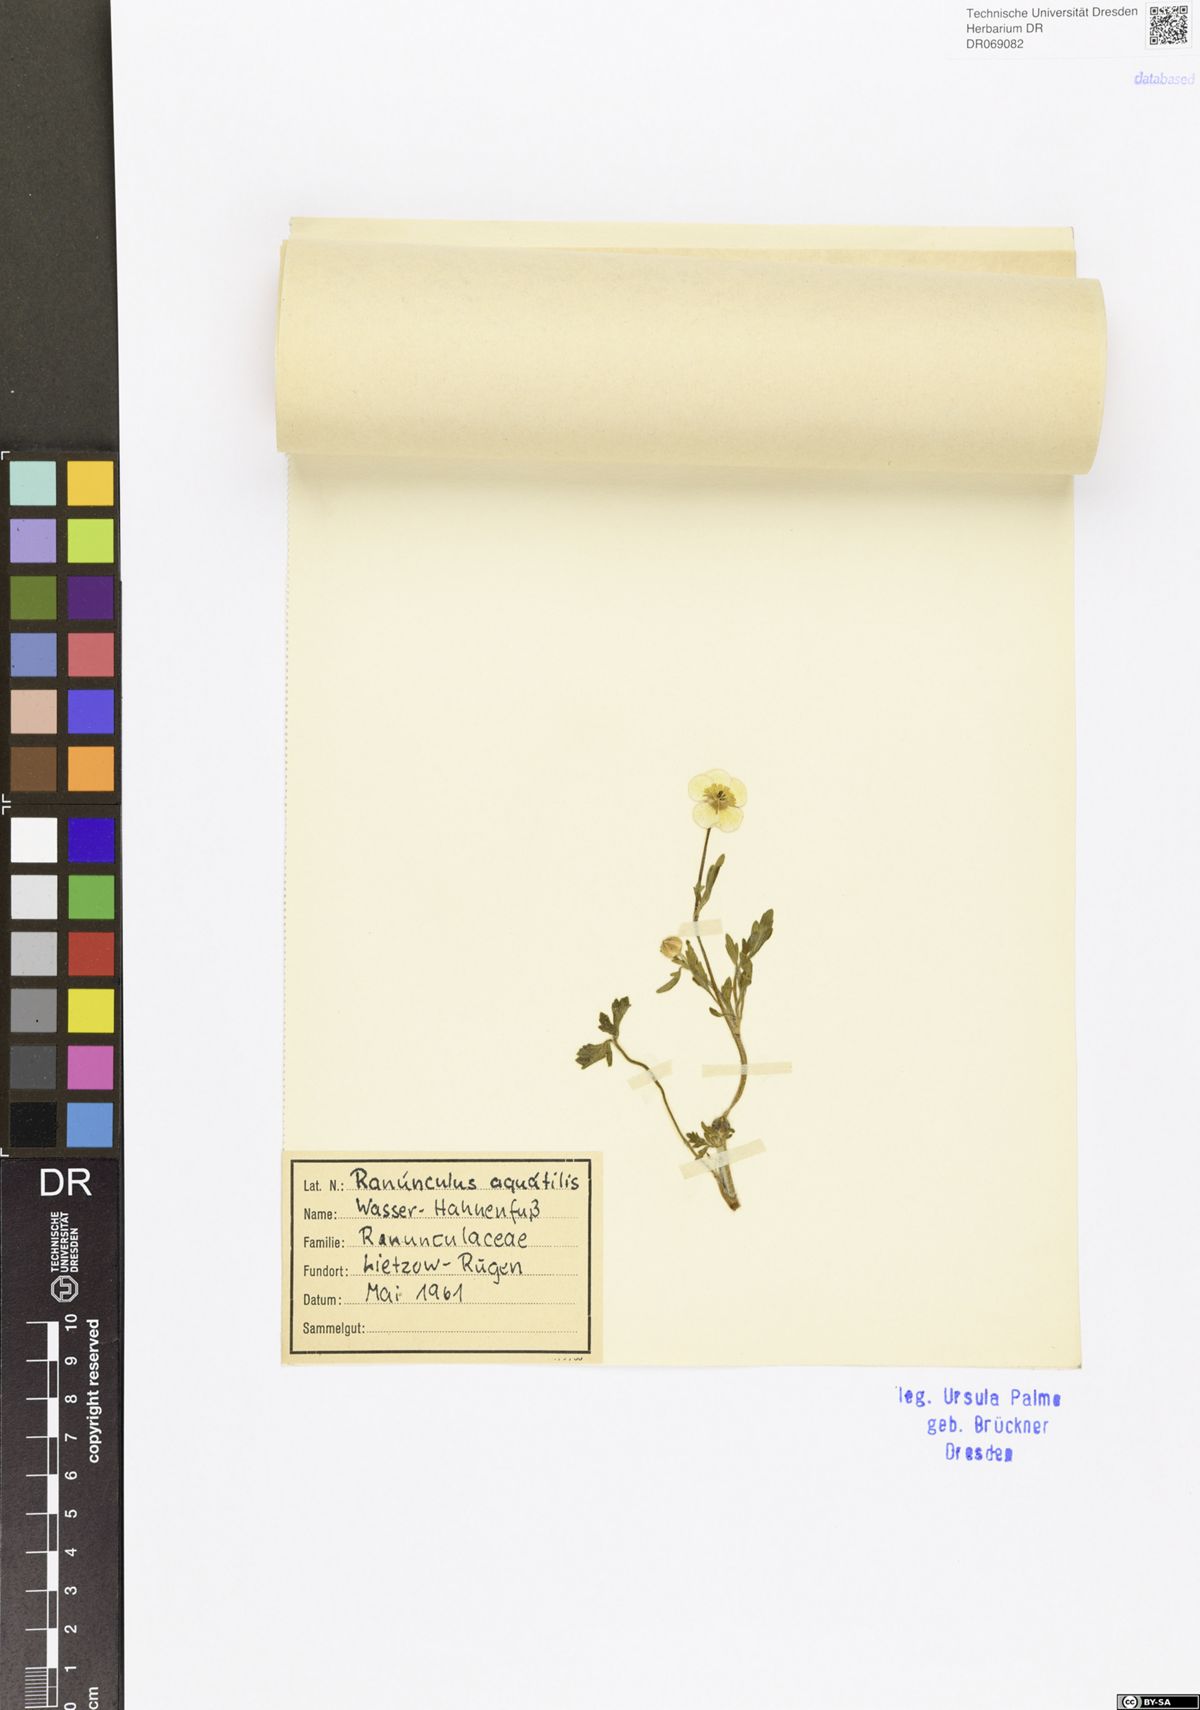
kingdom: Plantae
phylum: Tracheophyta
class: Magnoliopsida
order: Ranunculales
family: Ranunculaceae
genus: Ranunculus
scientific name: Ranunculus aquatilis
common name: Common water-crowfoot
